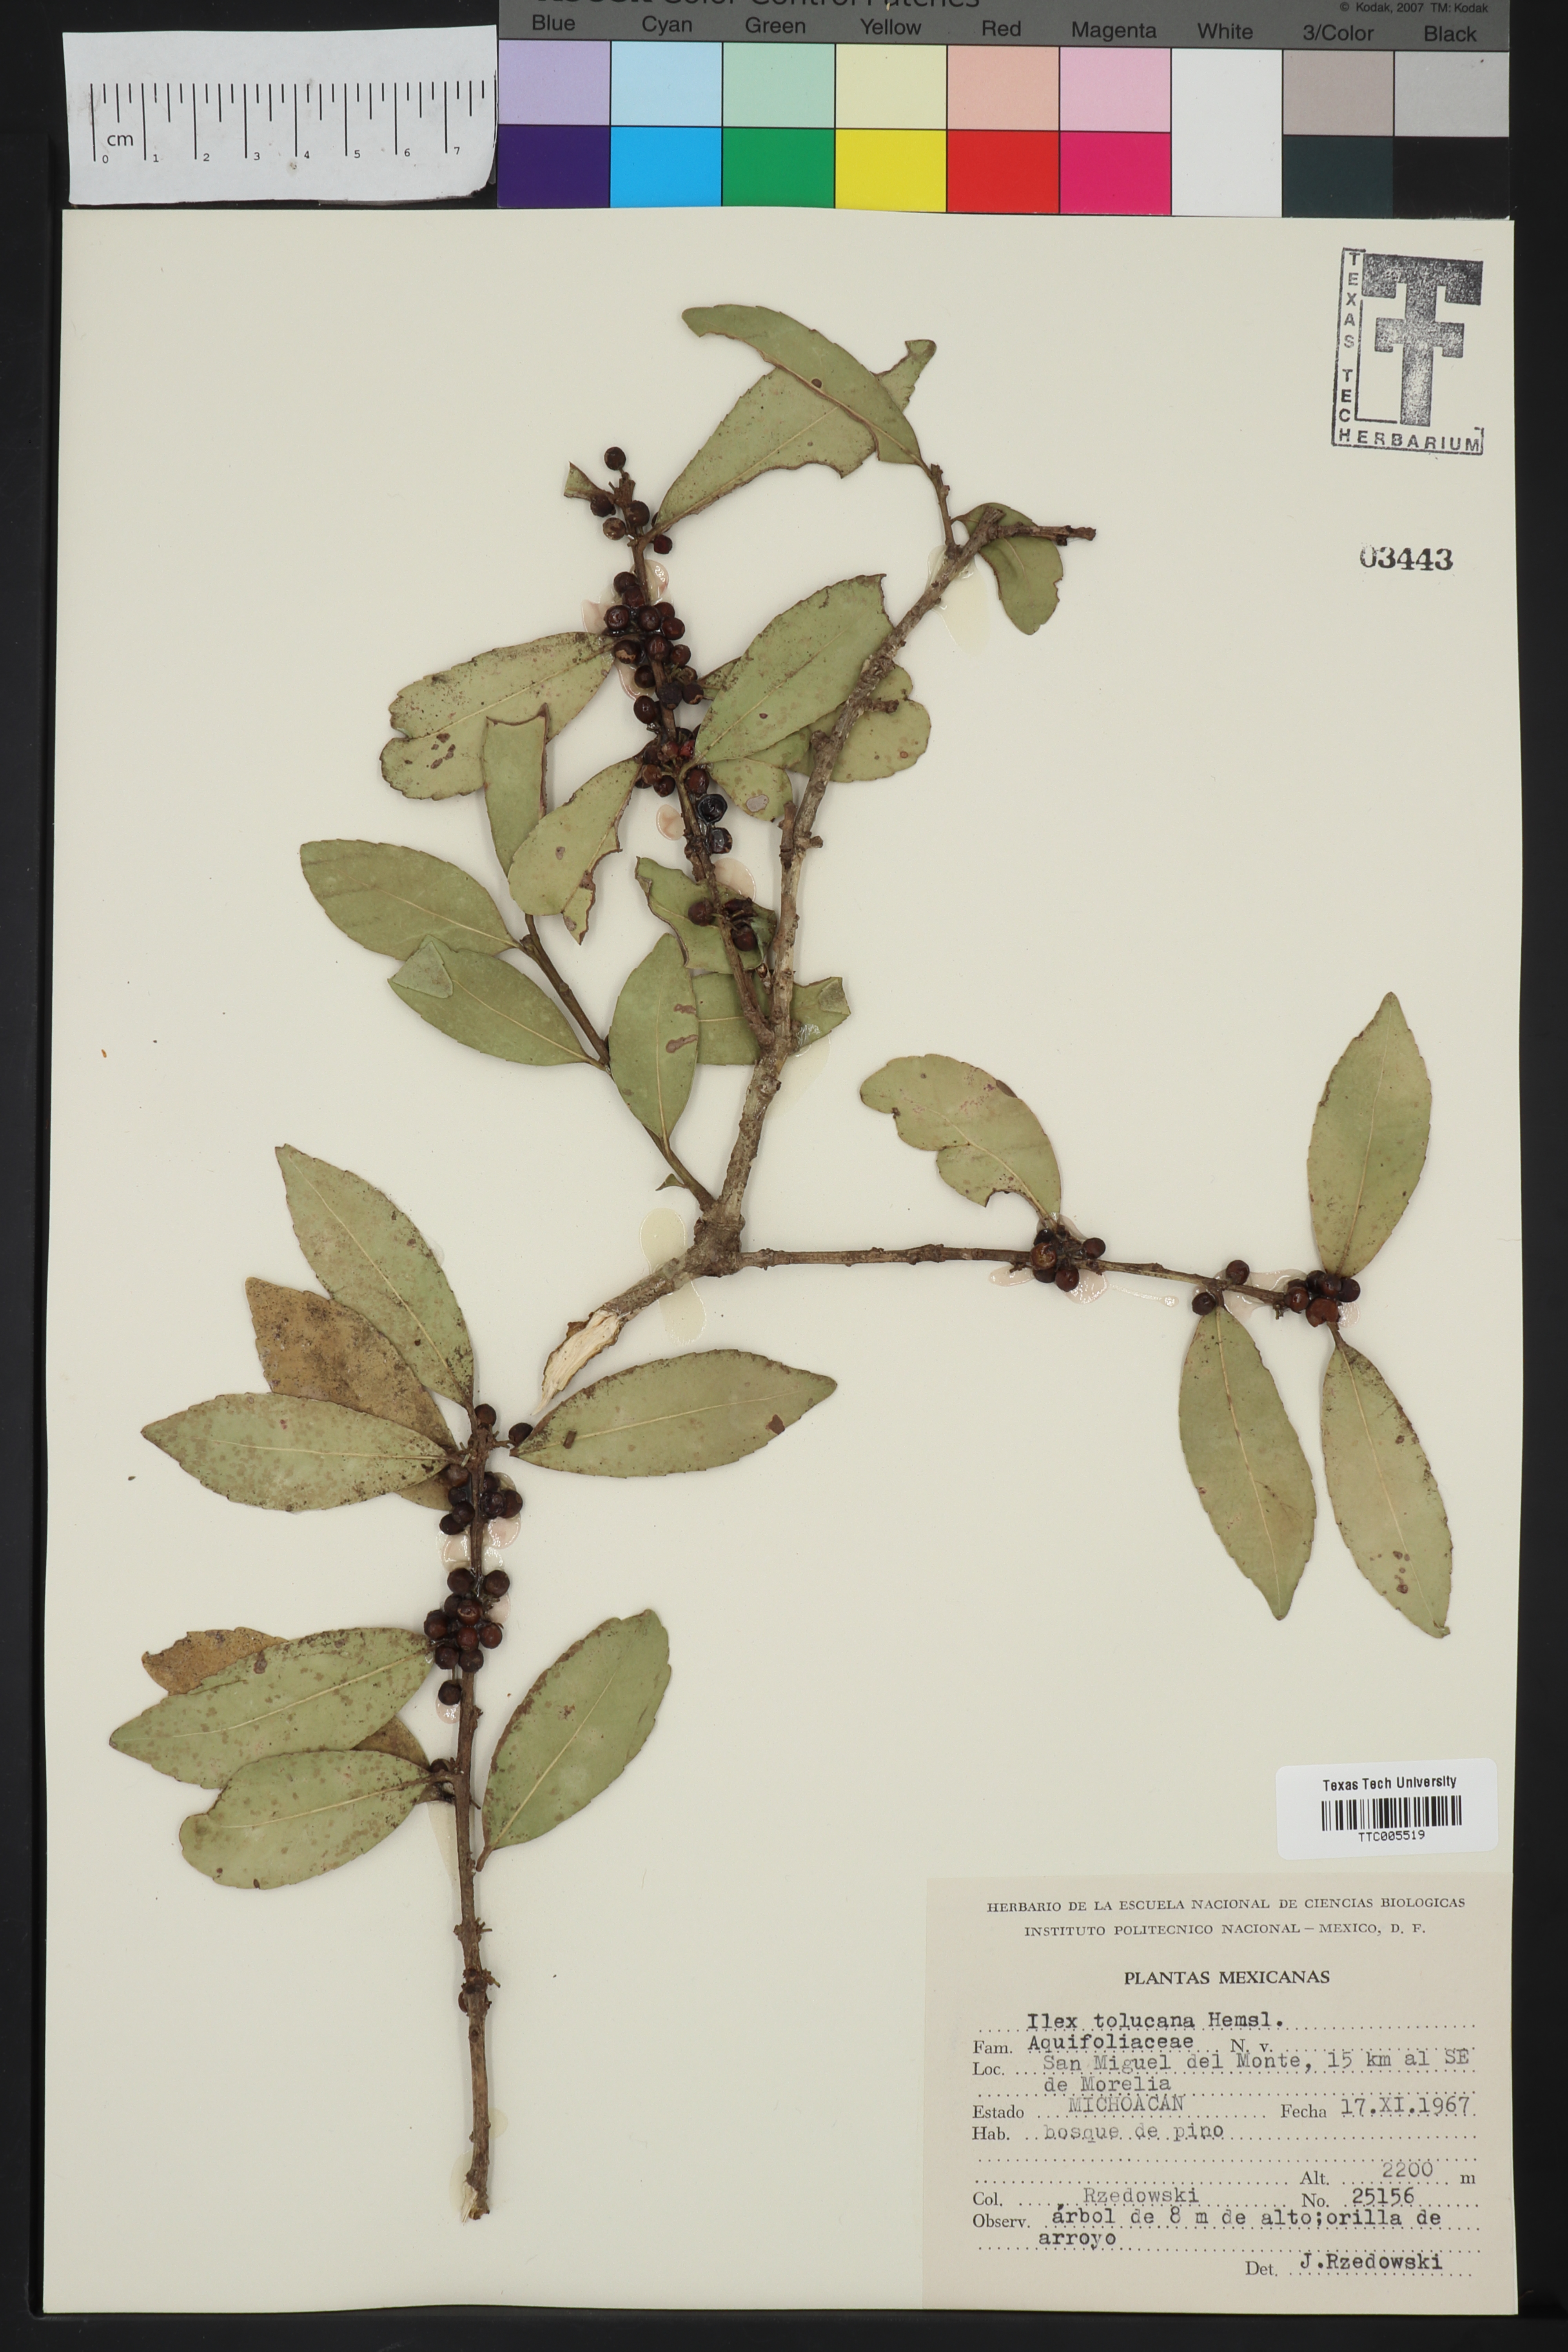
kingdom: Plantae
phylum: Tracheophyta
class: Magnoliopsida
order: Aquifoliales
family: Aquifoliaceae
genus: Ilex
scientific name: Ilex discolor
